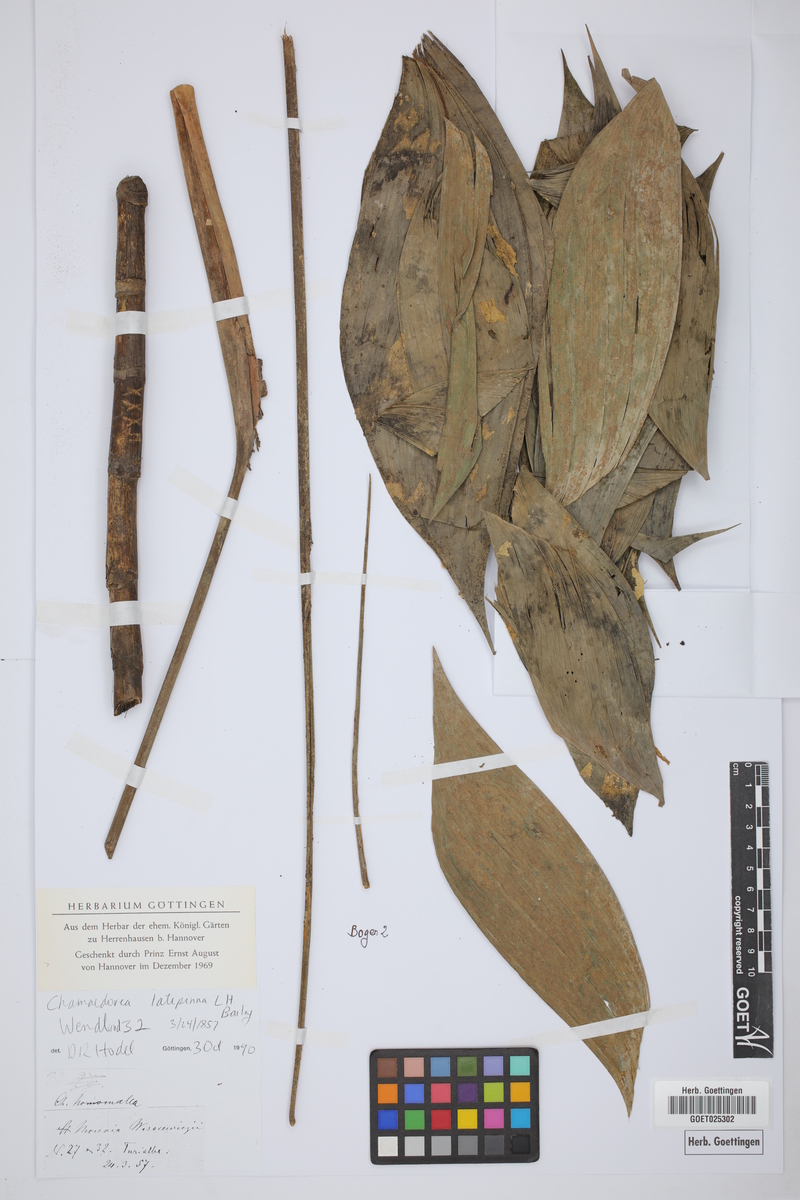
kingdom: Plantae
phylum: Tracheophyta
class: Liliopsida
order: Arecales
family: Arecaceae
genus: Chamaedorea
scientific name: Chamaedorea warscewiczii
